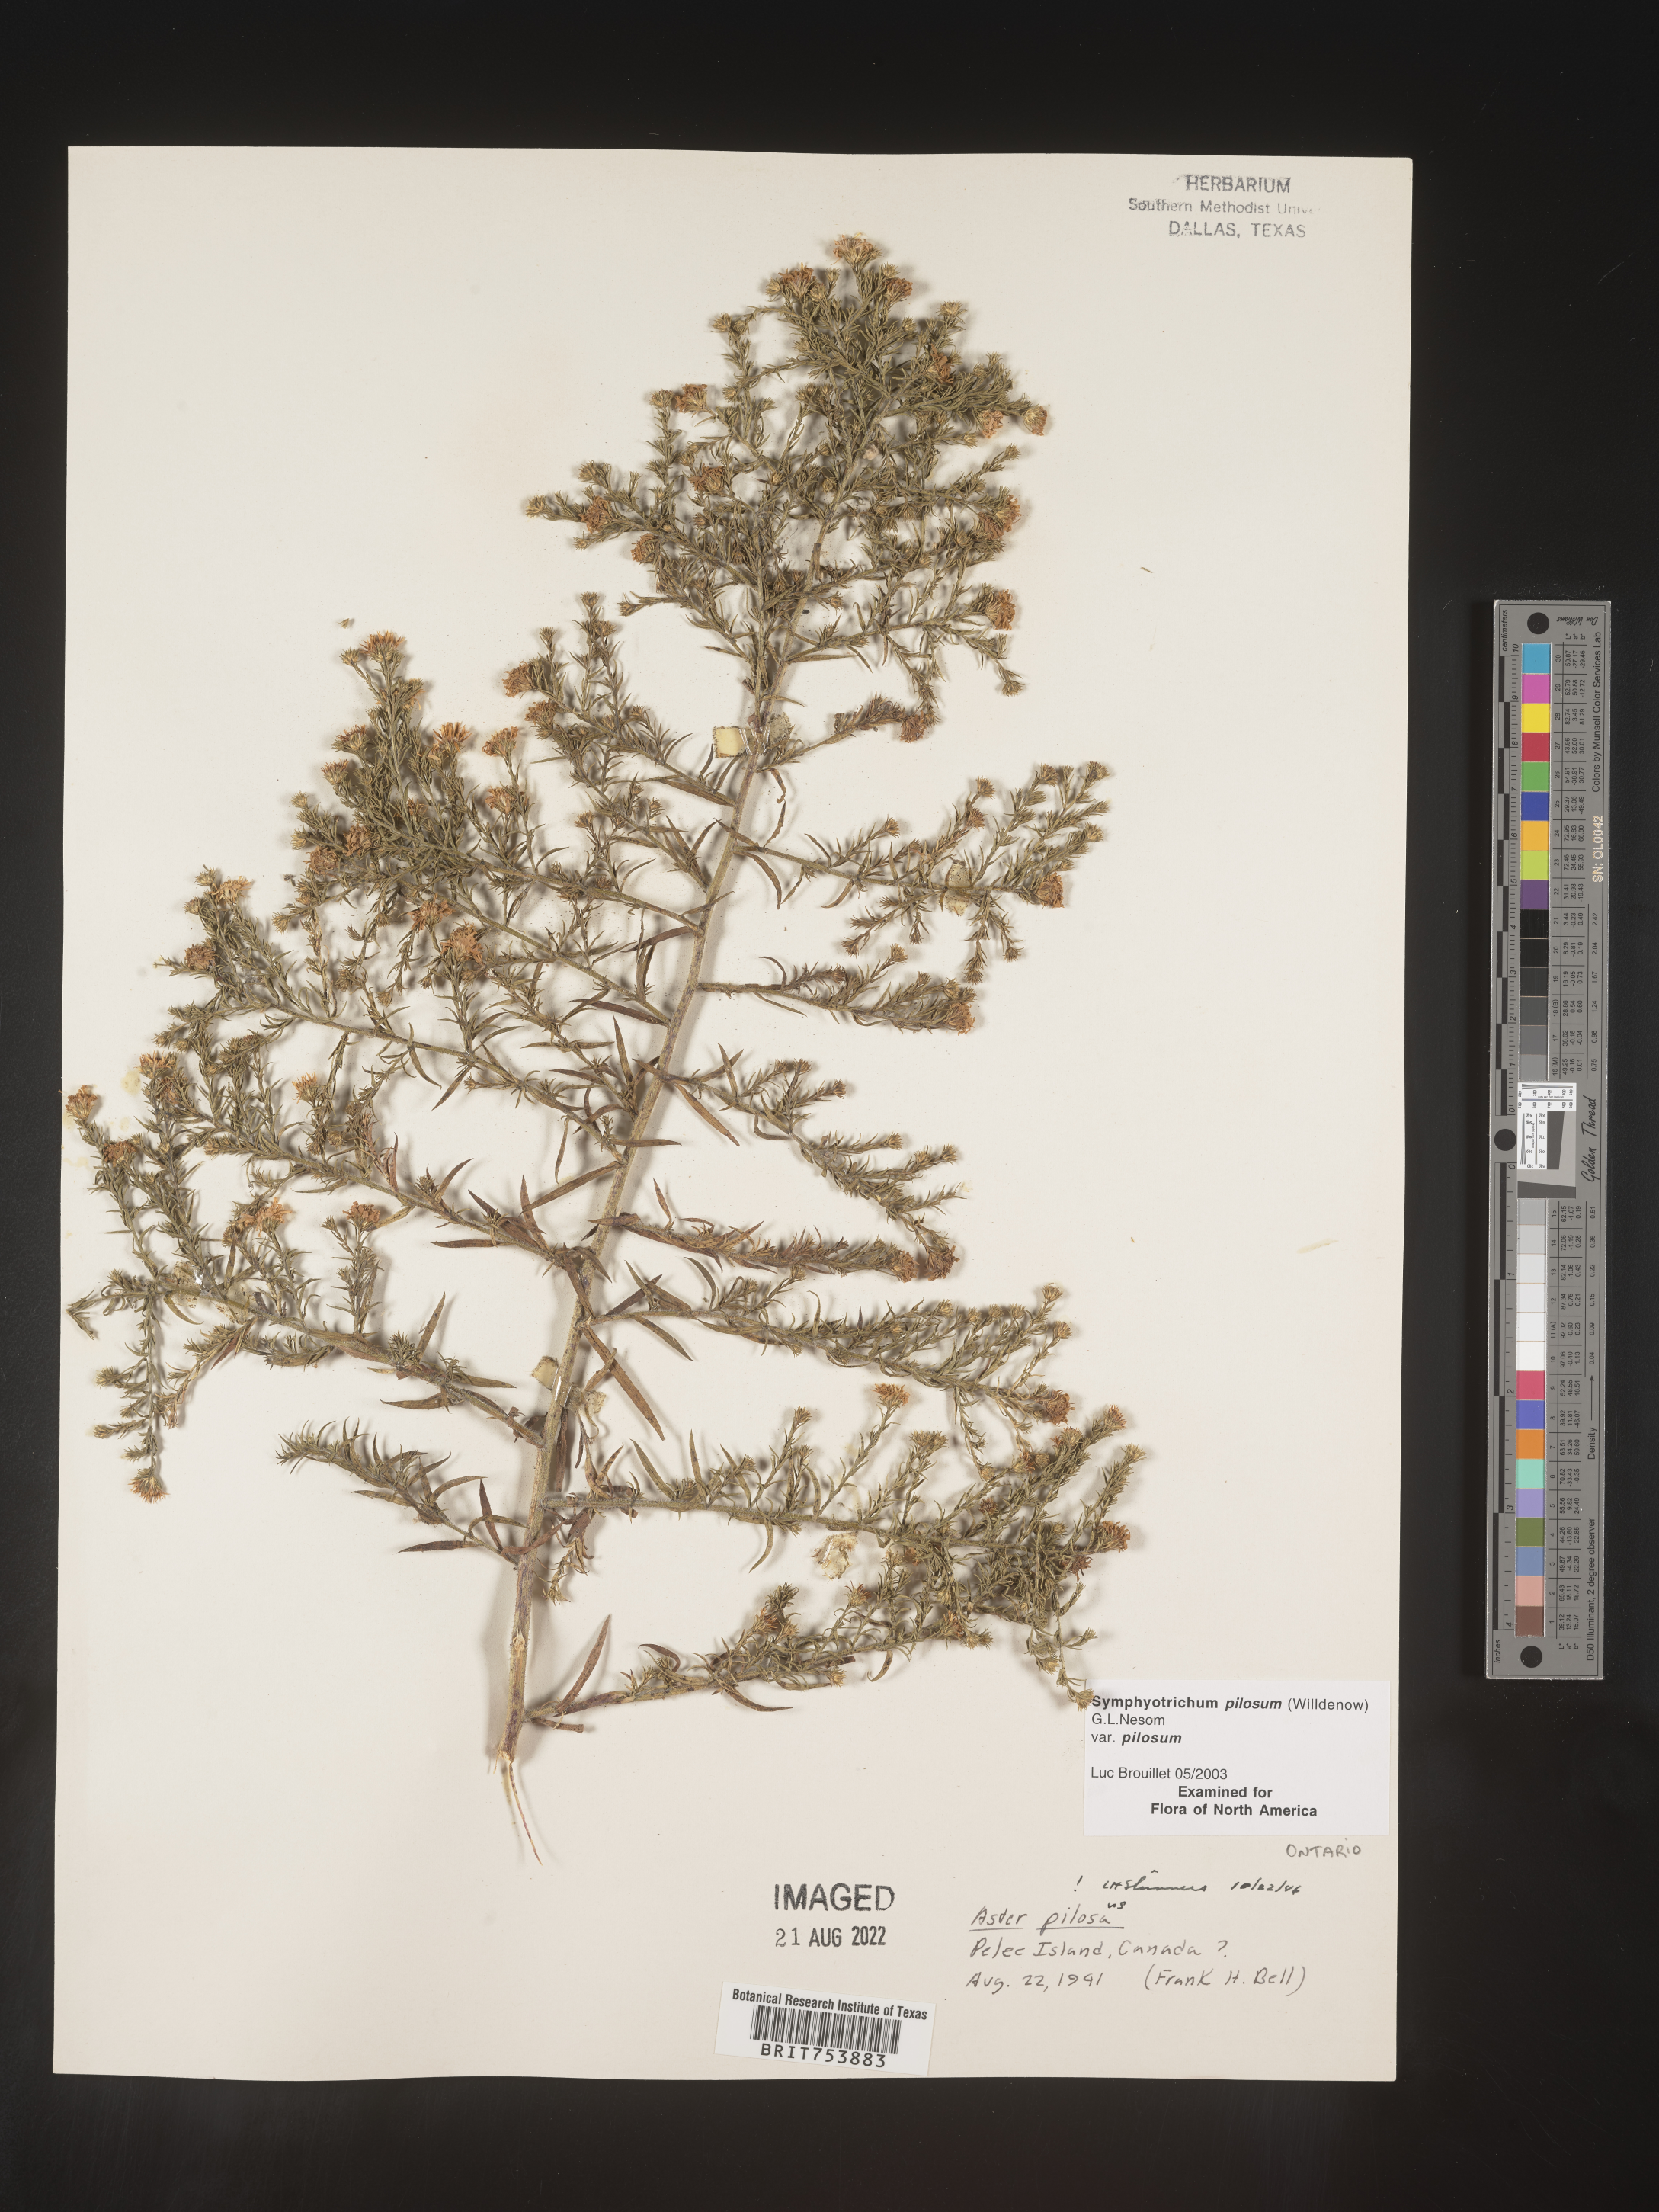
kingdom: Plantae
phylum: Tracheophyta
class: Magnoliopsida
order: Asterales
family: Asteraceae
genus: Symphyotrichum
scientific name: Symphyotrichum pilosum
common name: Awl aster
